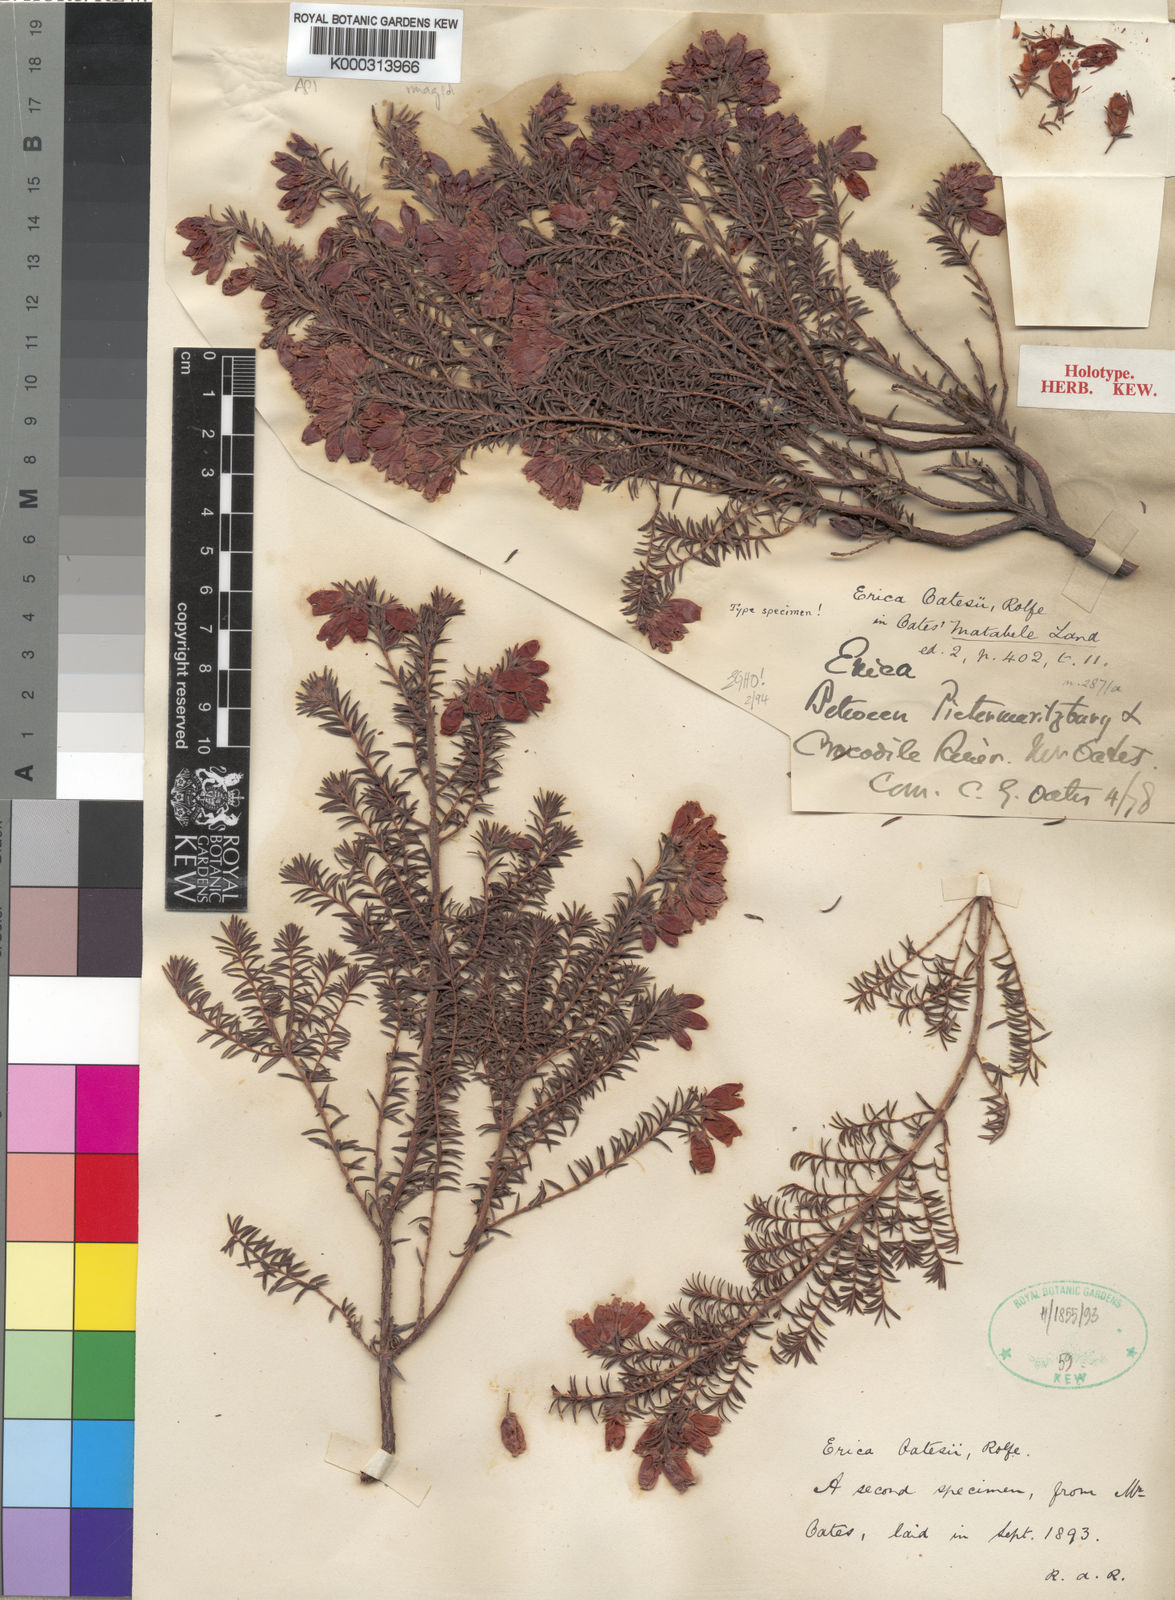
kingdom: Plantae
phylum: Tracheophyta
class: Magnoliopsida
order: Ericales
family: Ericaceae
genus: Erica
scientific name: Erica oatesii
